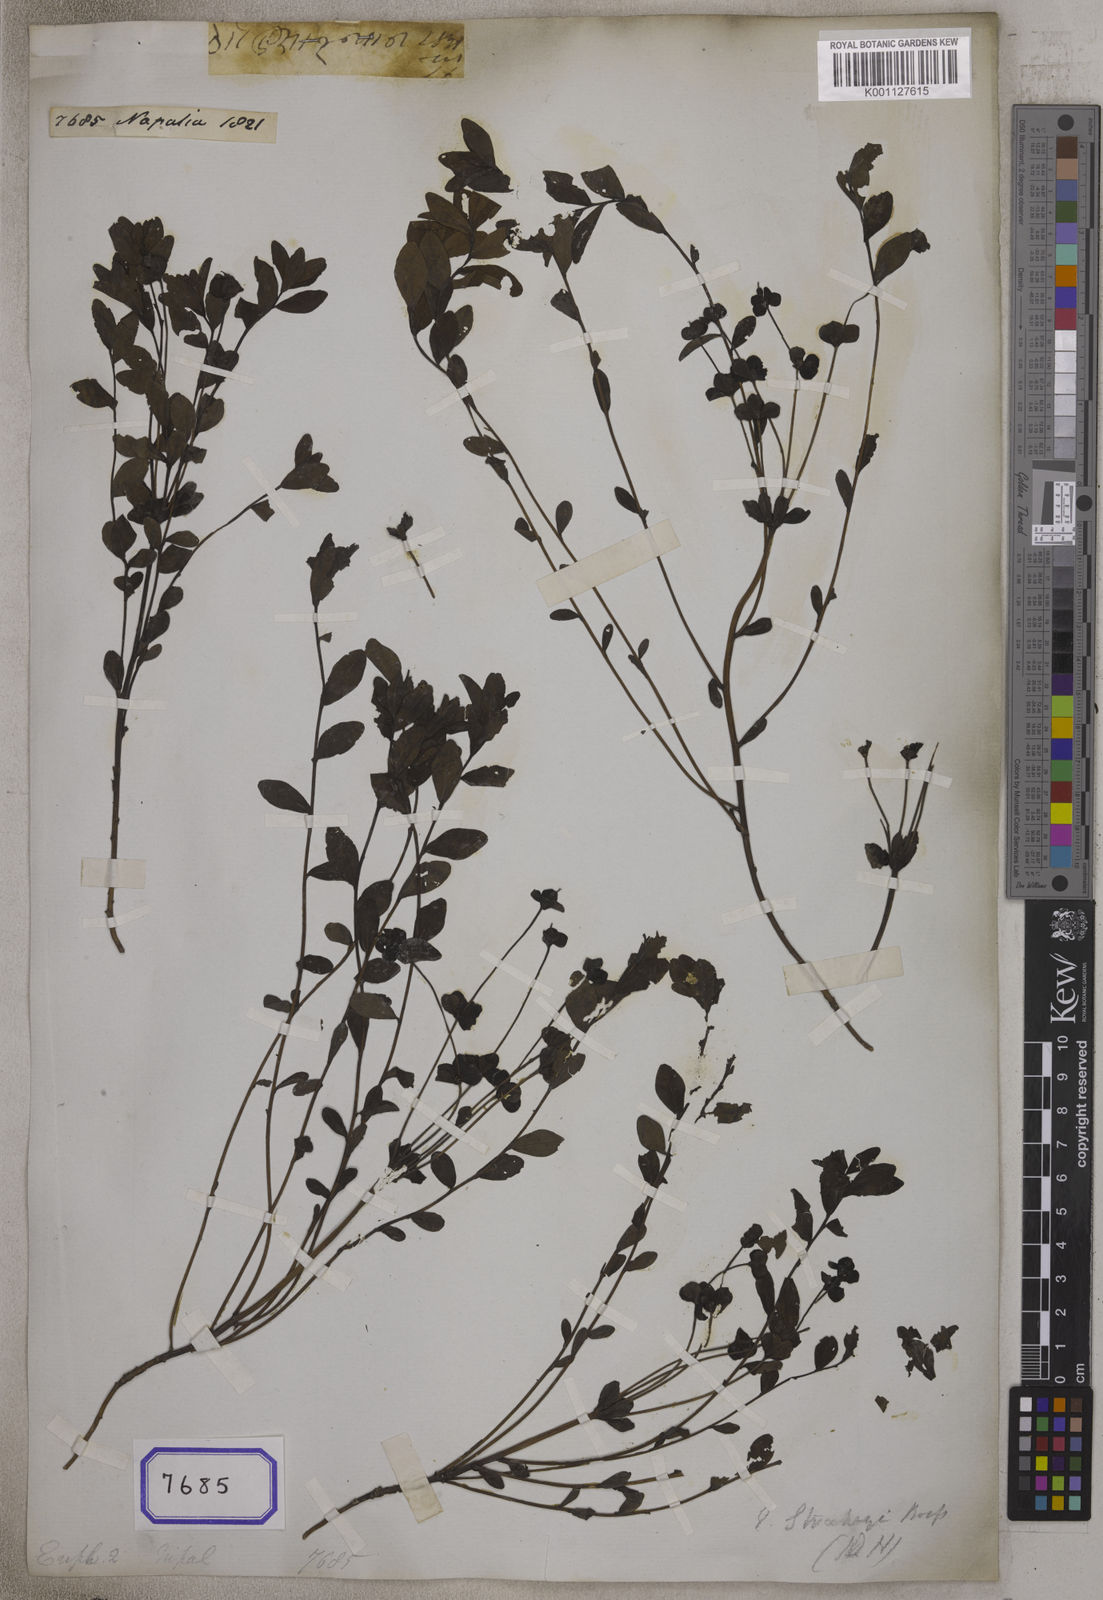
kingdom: Plantae
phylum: Tracheophyta
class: Magnoliopsida
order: Malpighiales
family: Euphorbiaceae
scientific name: Euphorbiaceae
